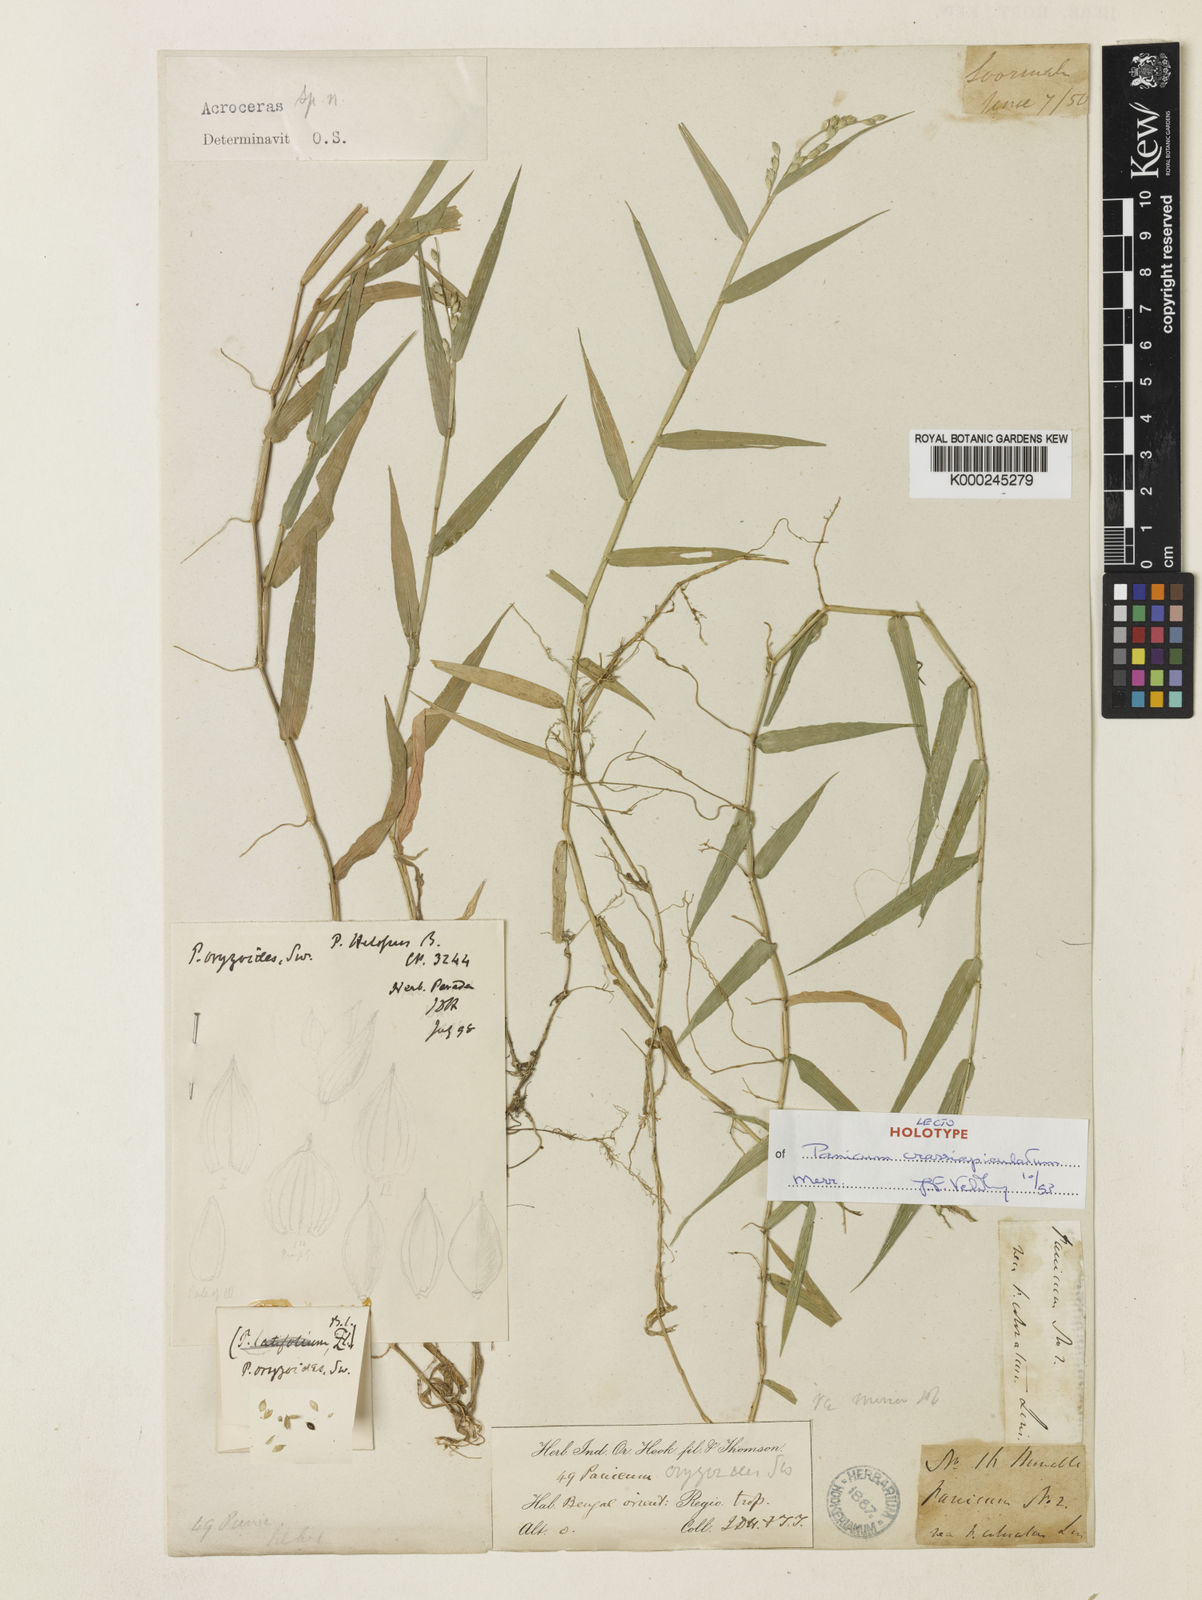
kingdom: Plantae
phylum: Tracheophyta
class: Liliopsida
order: Poales
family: Poaceae
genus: Acroceras
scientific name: Acroceras munroanum
